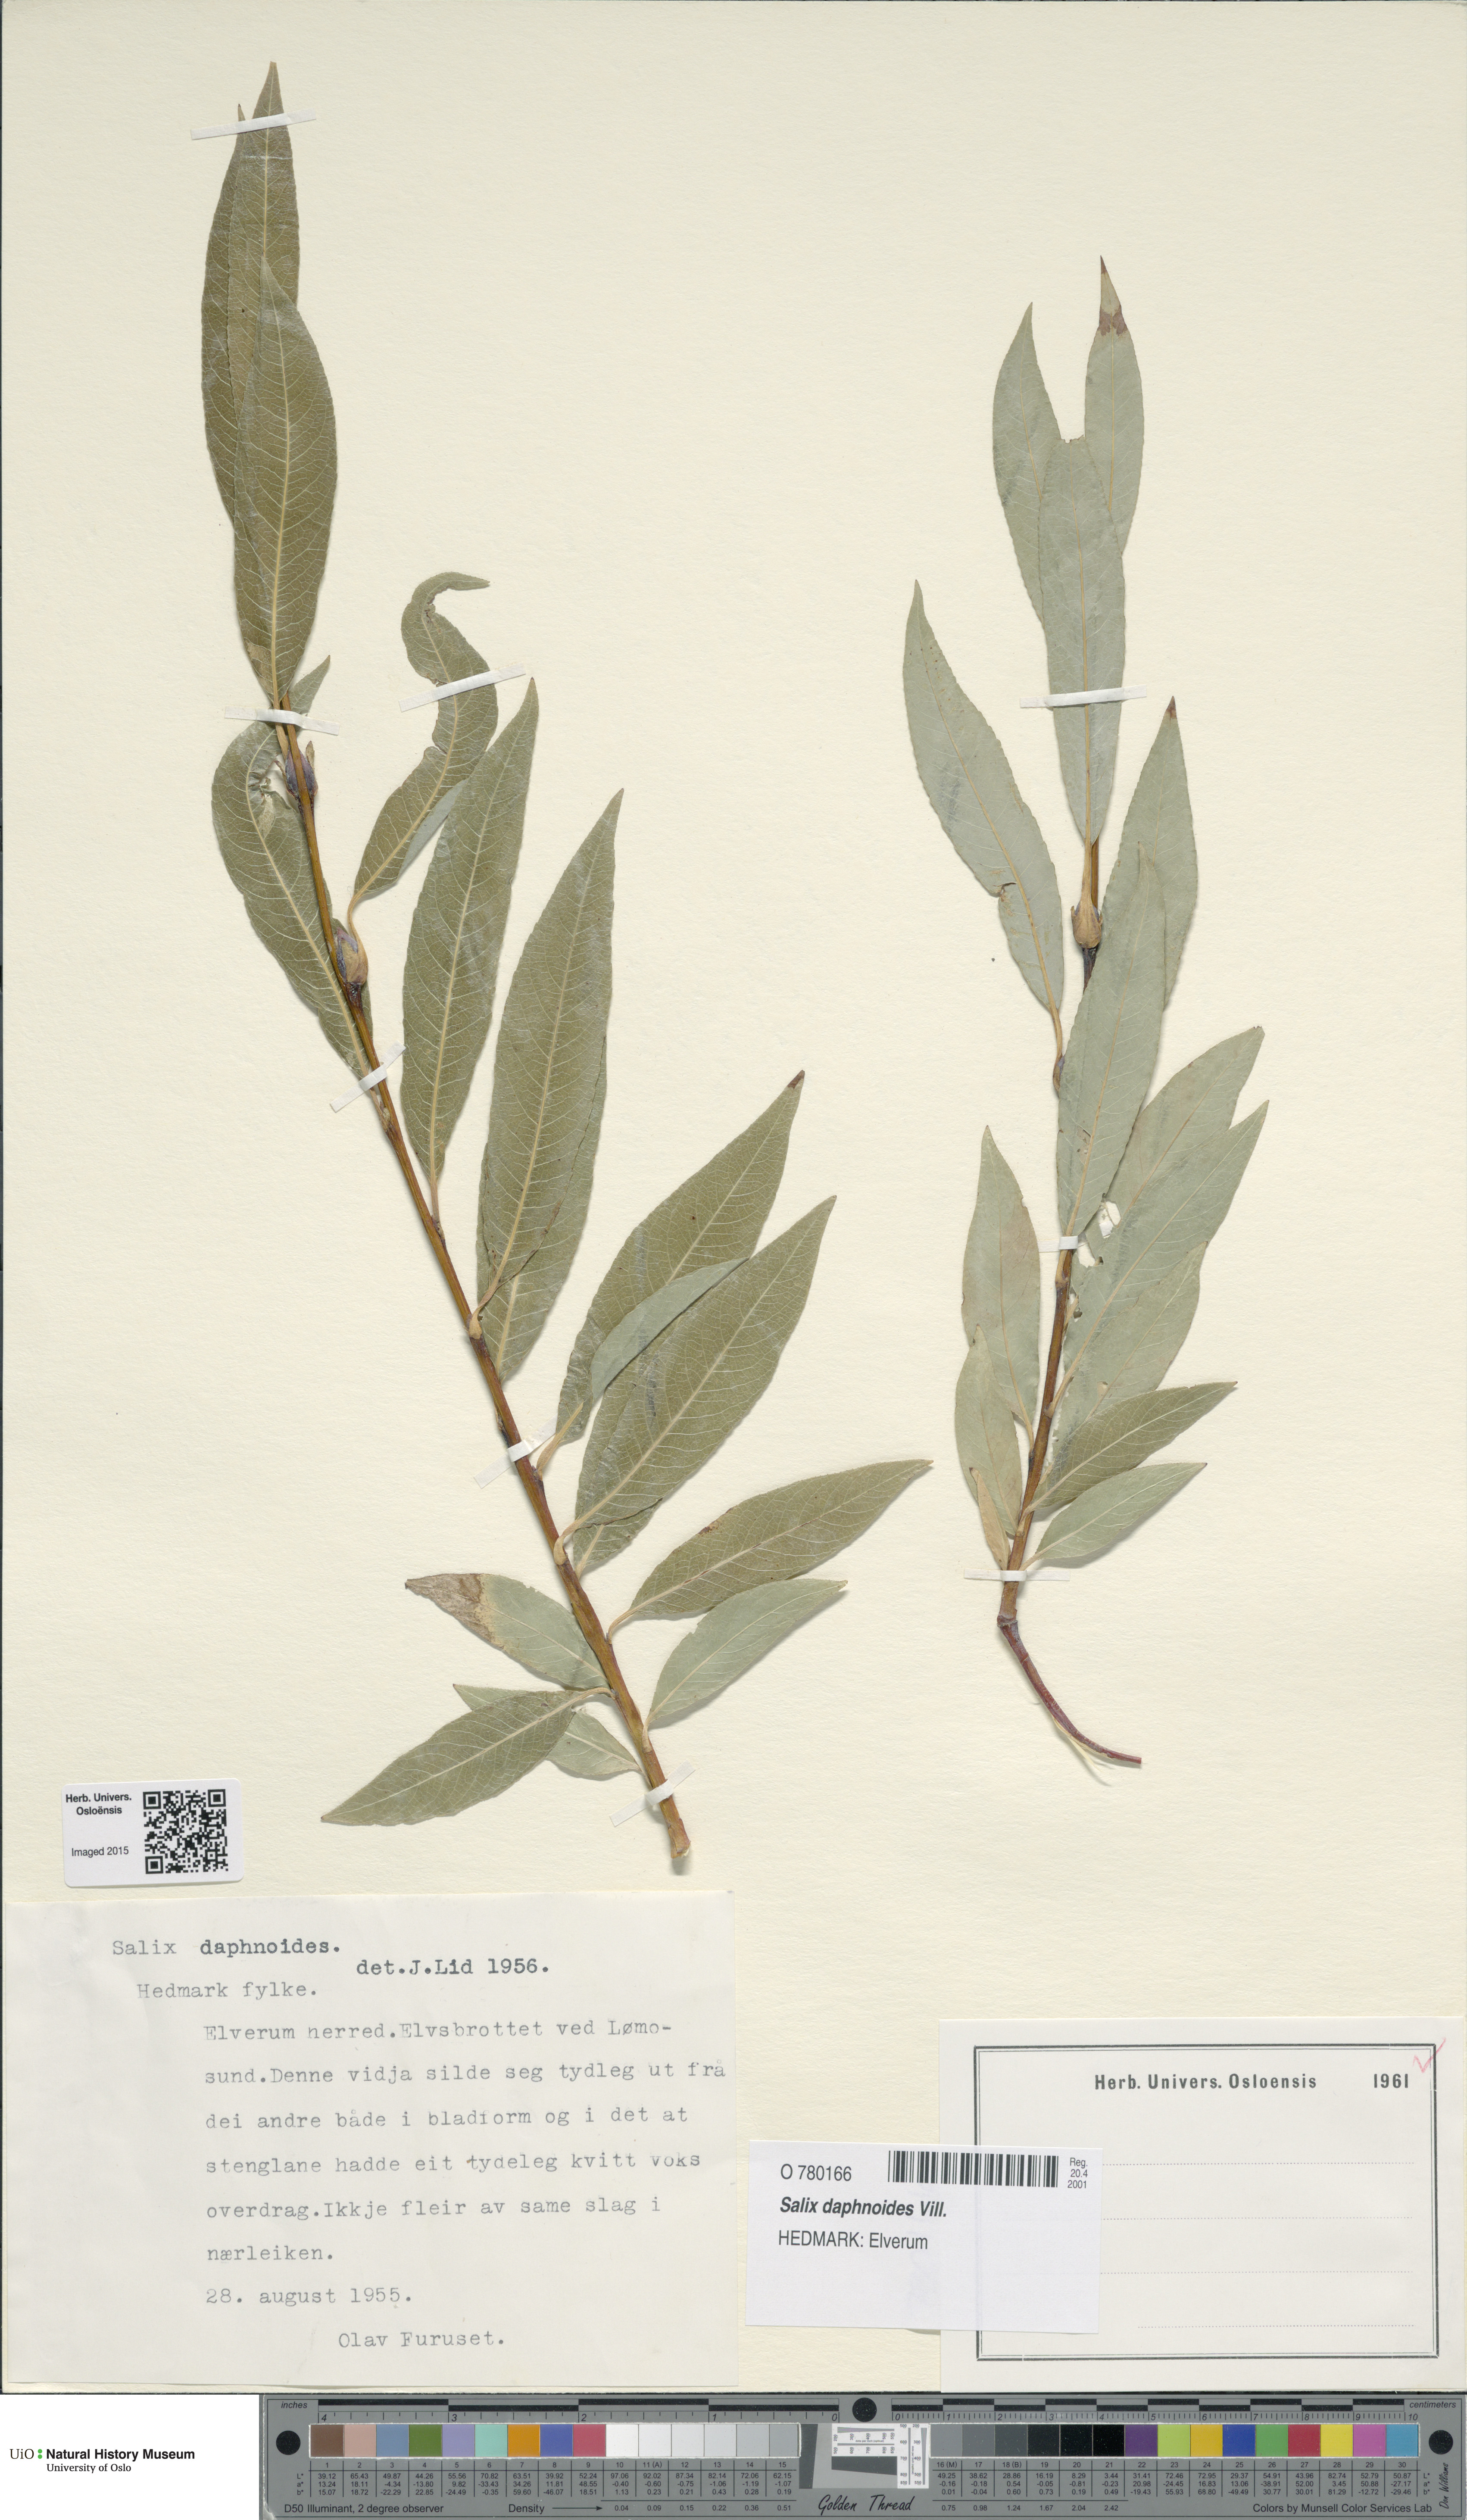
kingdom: Plantae
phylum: Tracheophyta
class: Magnoliopsida
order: Malpighiales
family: Salicaceae
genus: Salix
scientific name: Salix daphnoides
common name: European violet-willow
